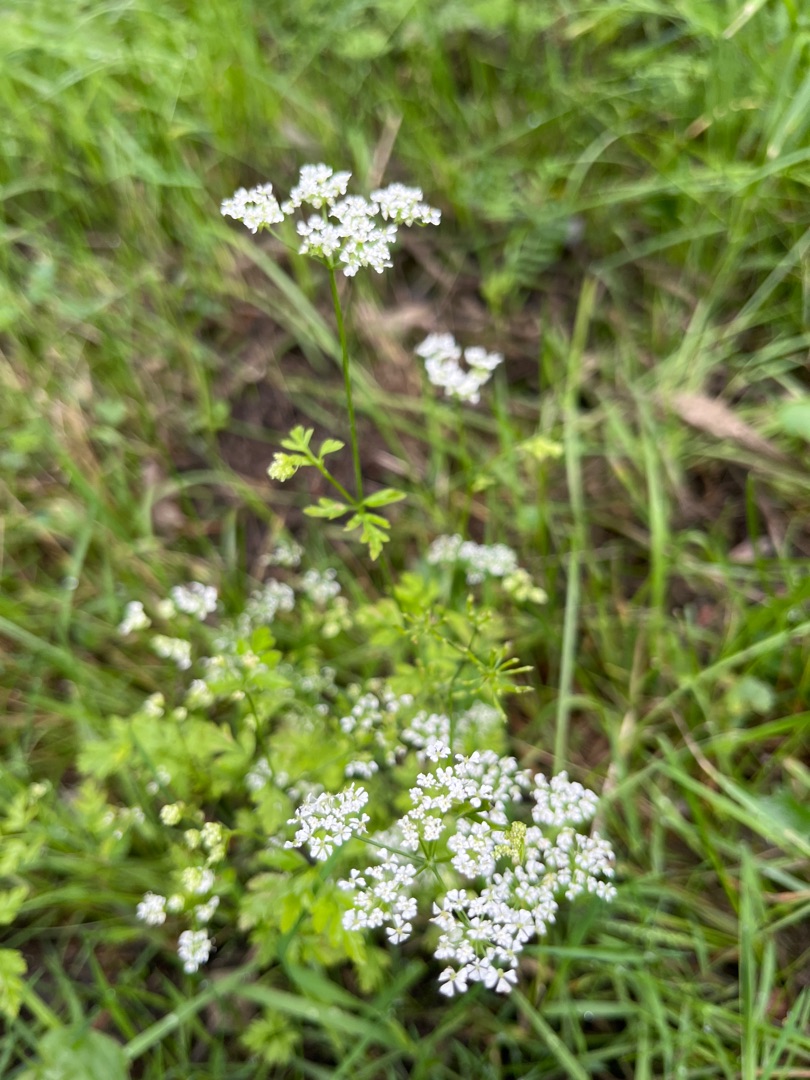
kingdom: Plantae
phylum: Tracheophyta
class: Magnoliopsida
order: Apiales
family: Apiaceae
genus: Chaerophyllum
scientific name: Chaerophyllum temulum
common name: Almindelig hulsvøb
